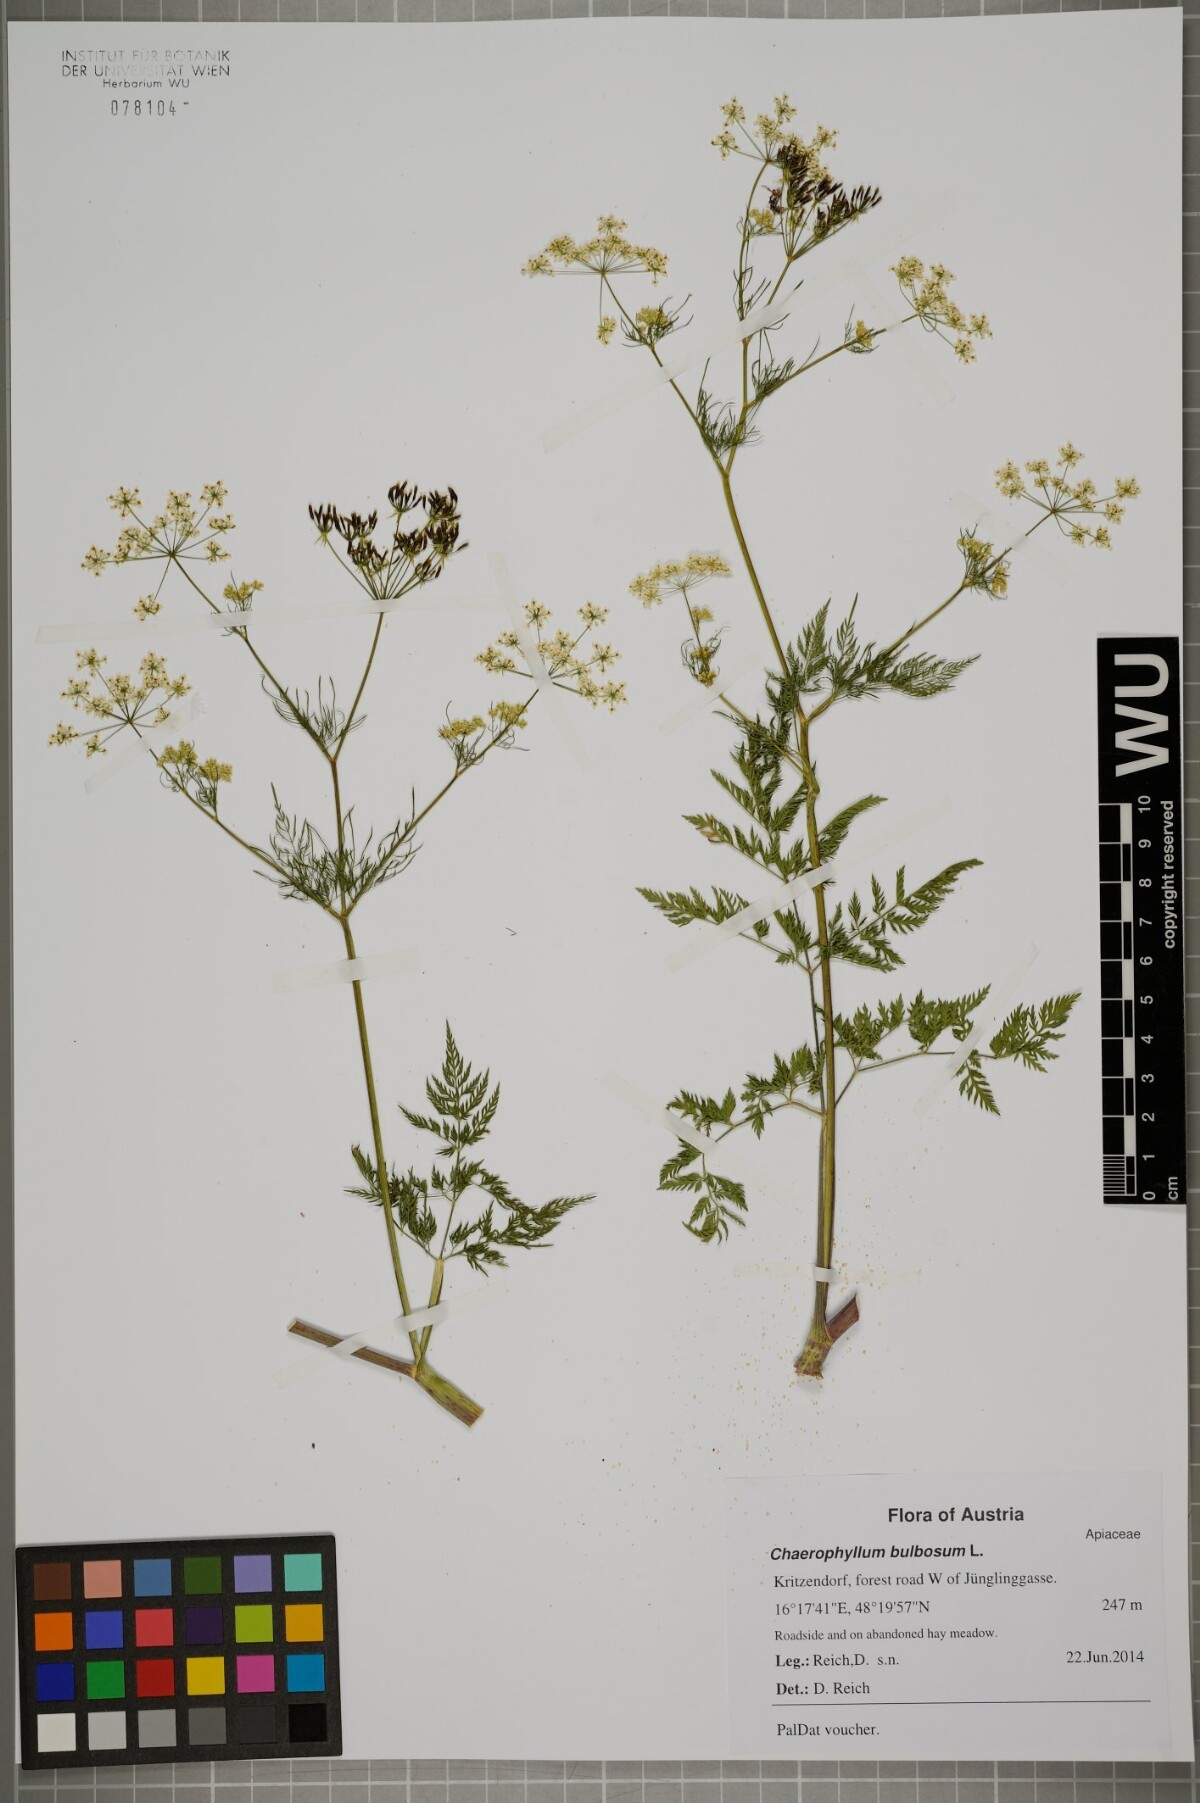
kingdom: Plantae
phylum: Tracheophyta
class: Magnoliopsida
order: Apiales
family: Apiaceae
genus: Chaerophyllum
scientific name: Chaerophyllum bulbosum
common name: Bulbous chervil
